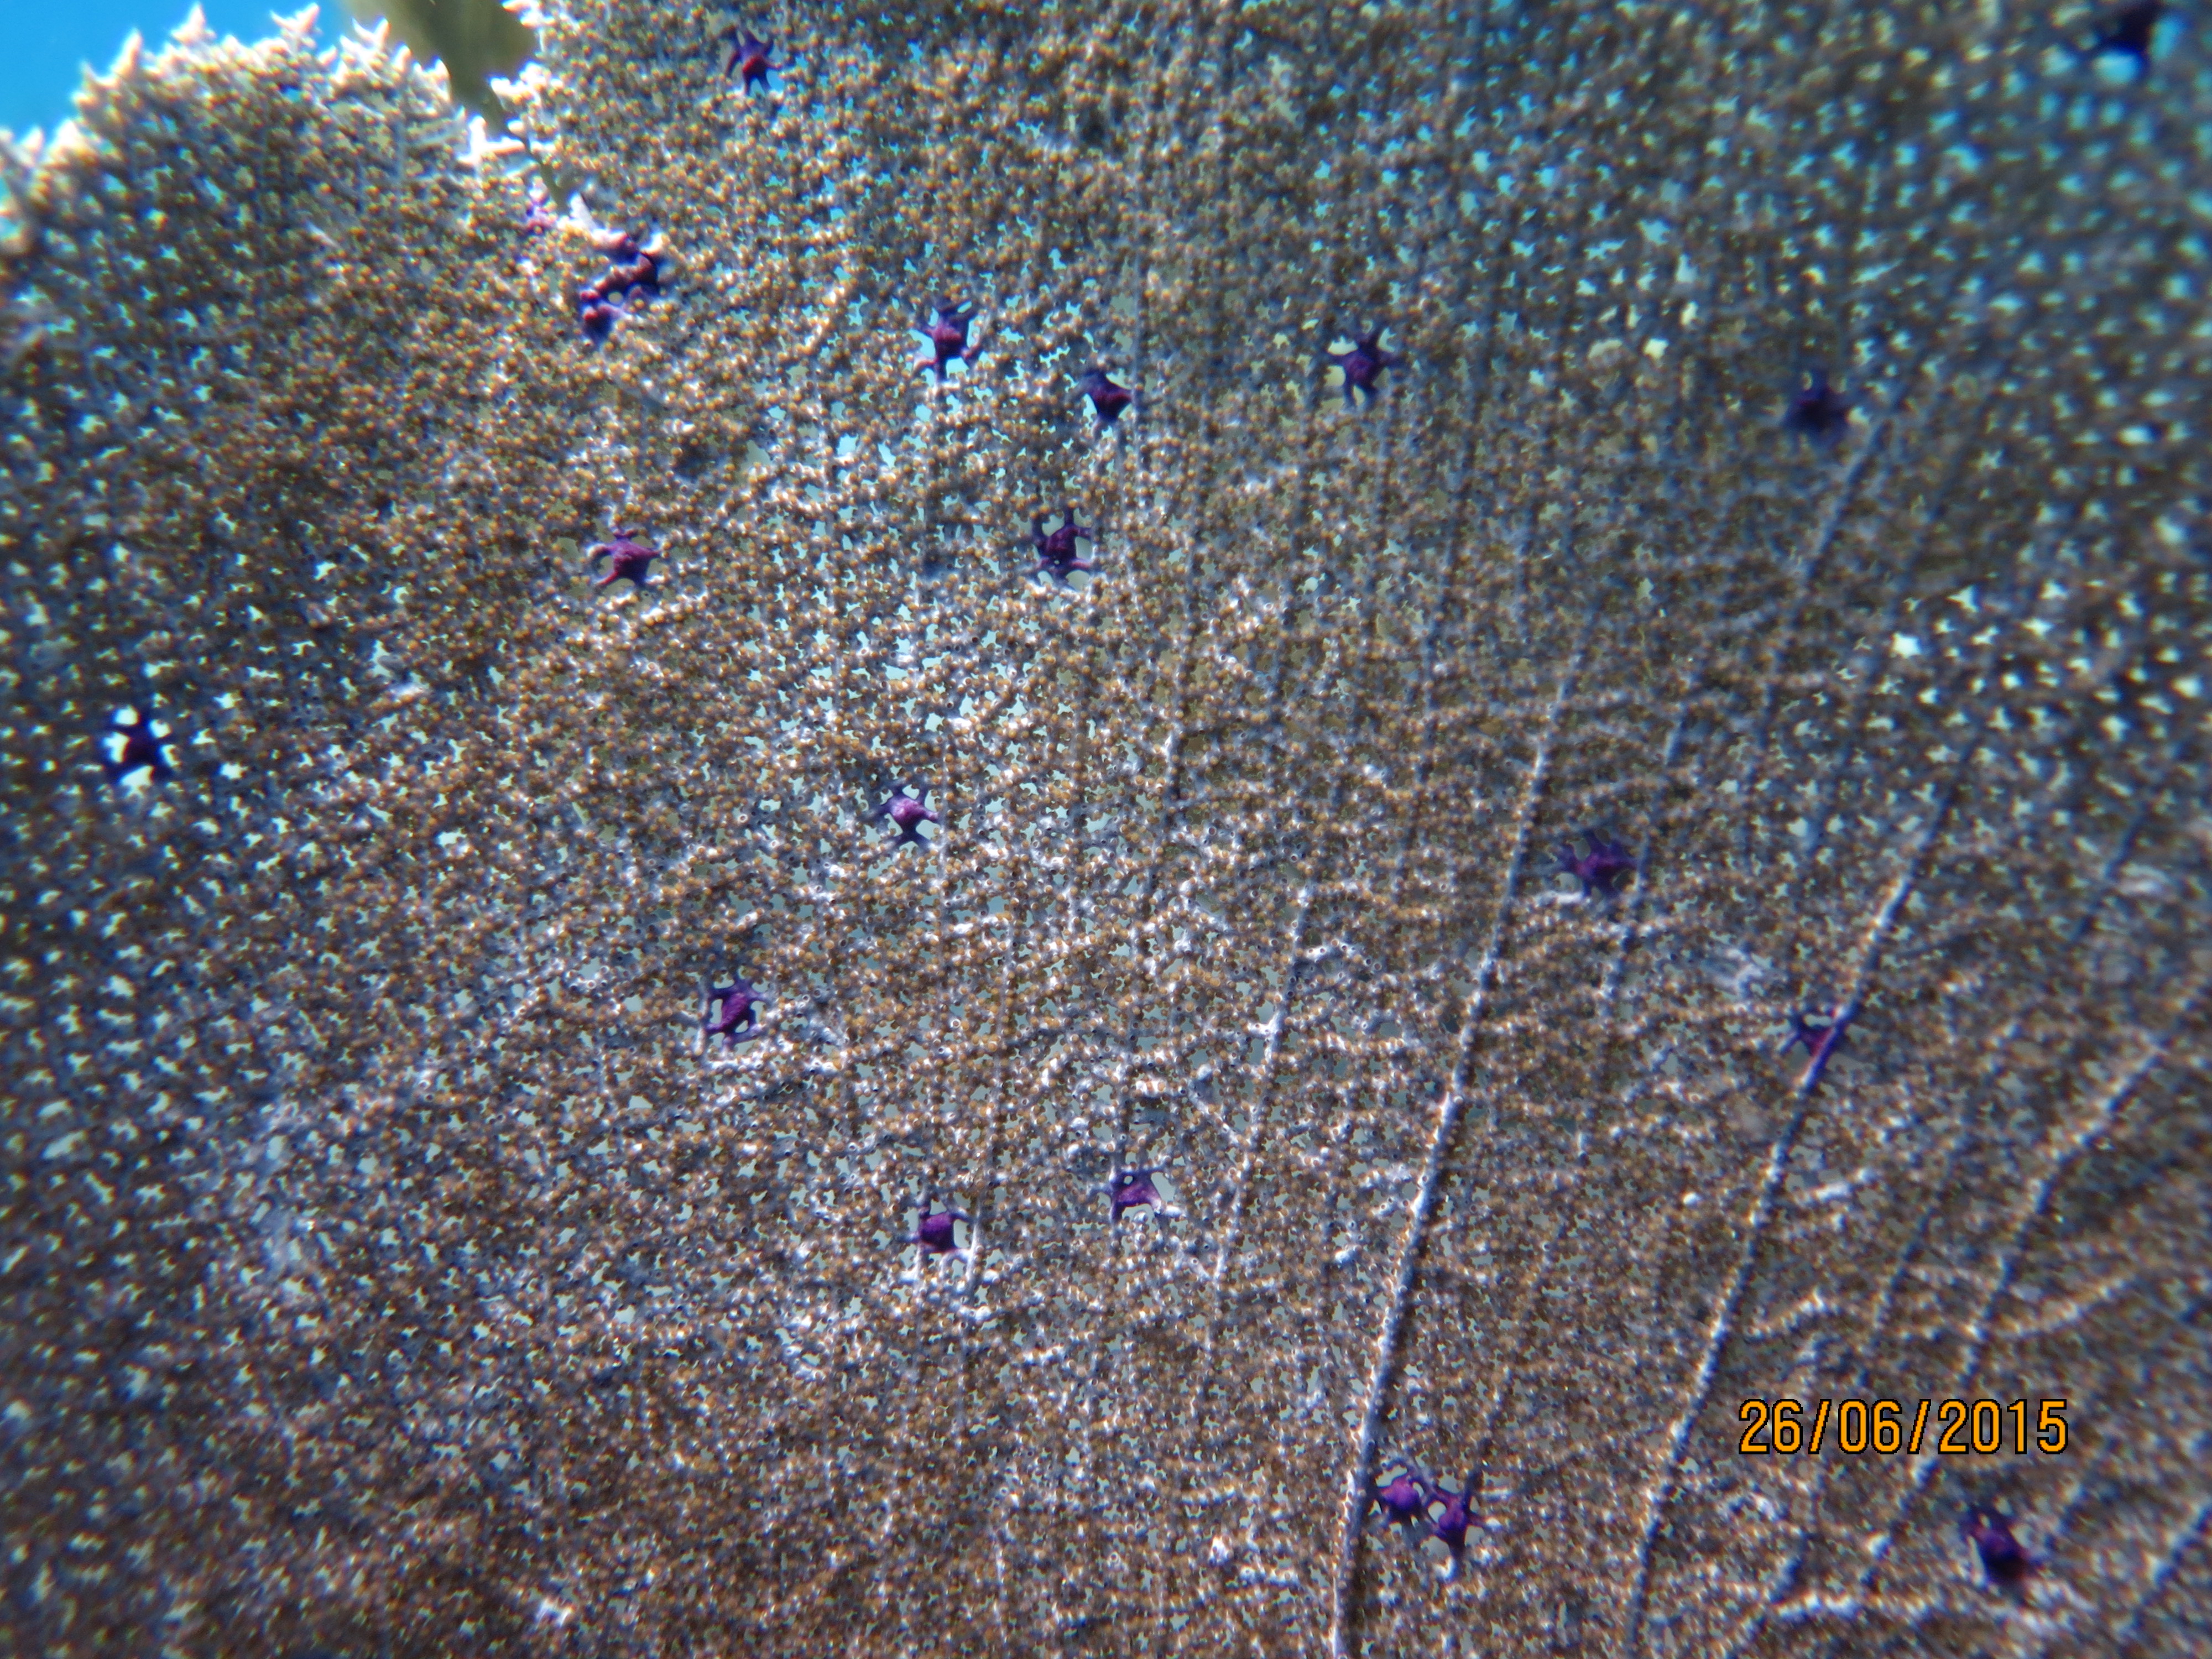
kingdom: Animalia
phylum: Cnidaria
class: Anthozoa
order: Malacalcyonacea
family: Gorgoniidae
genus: Gorgonia
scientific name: Gorgonia ventalina
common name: Common sea fan
